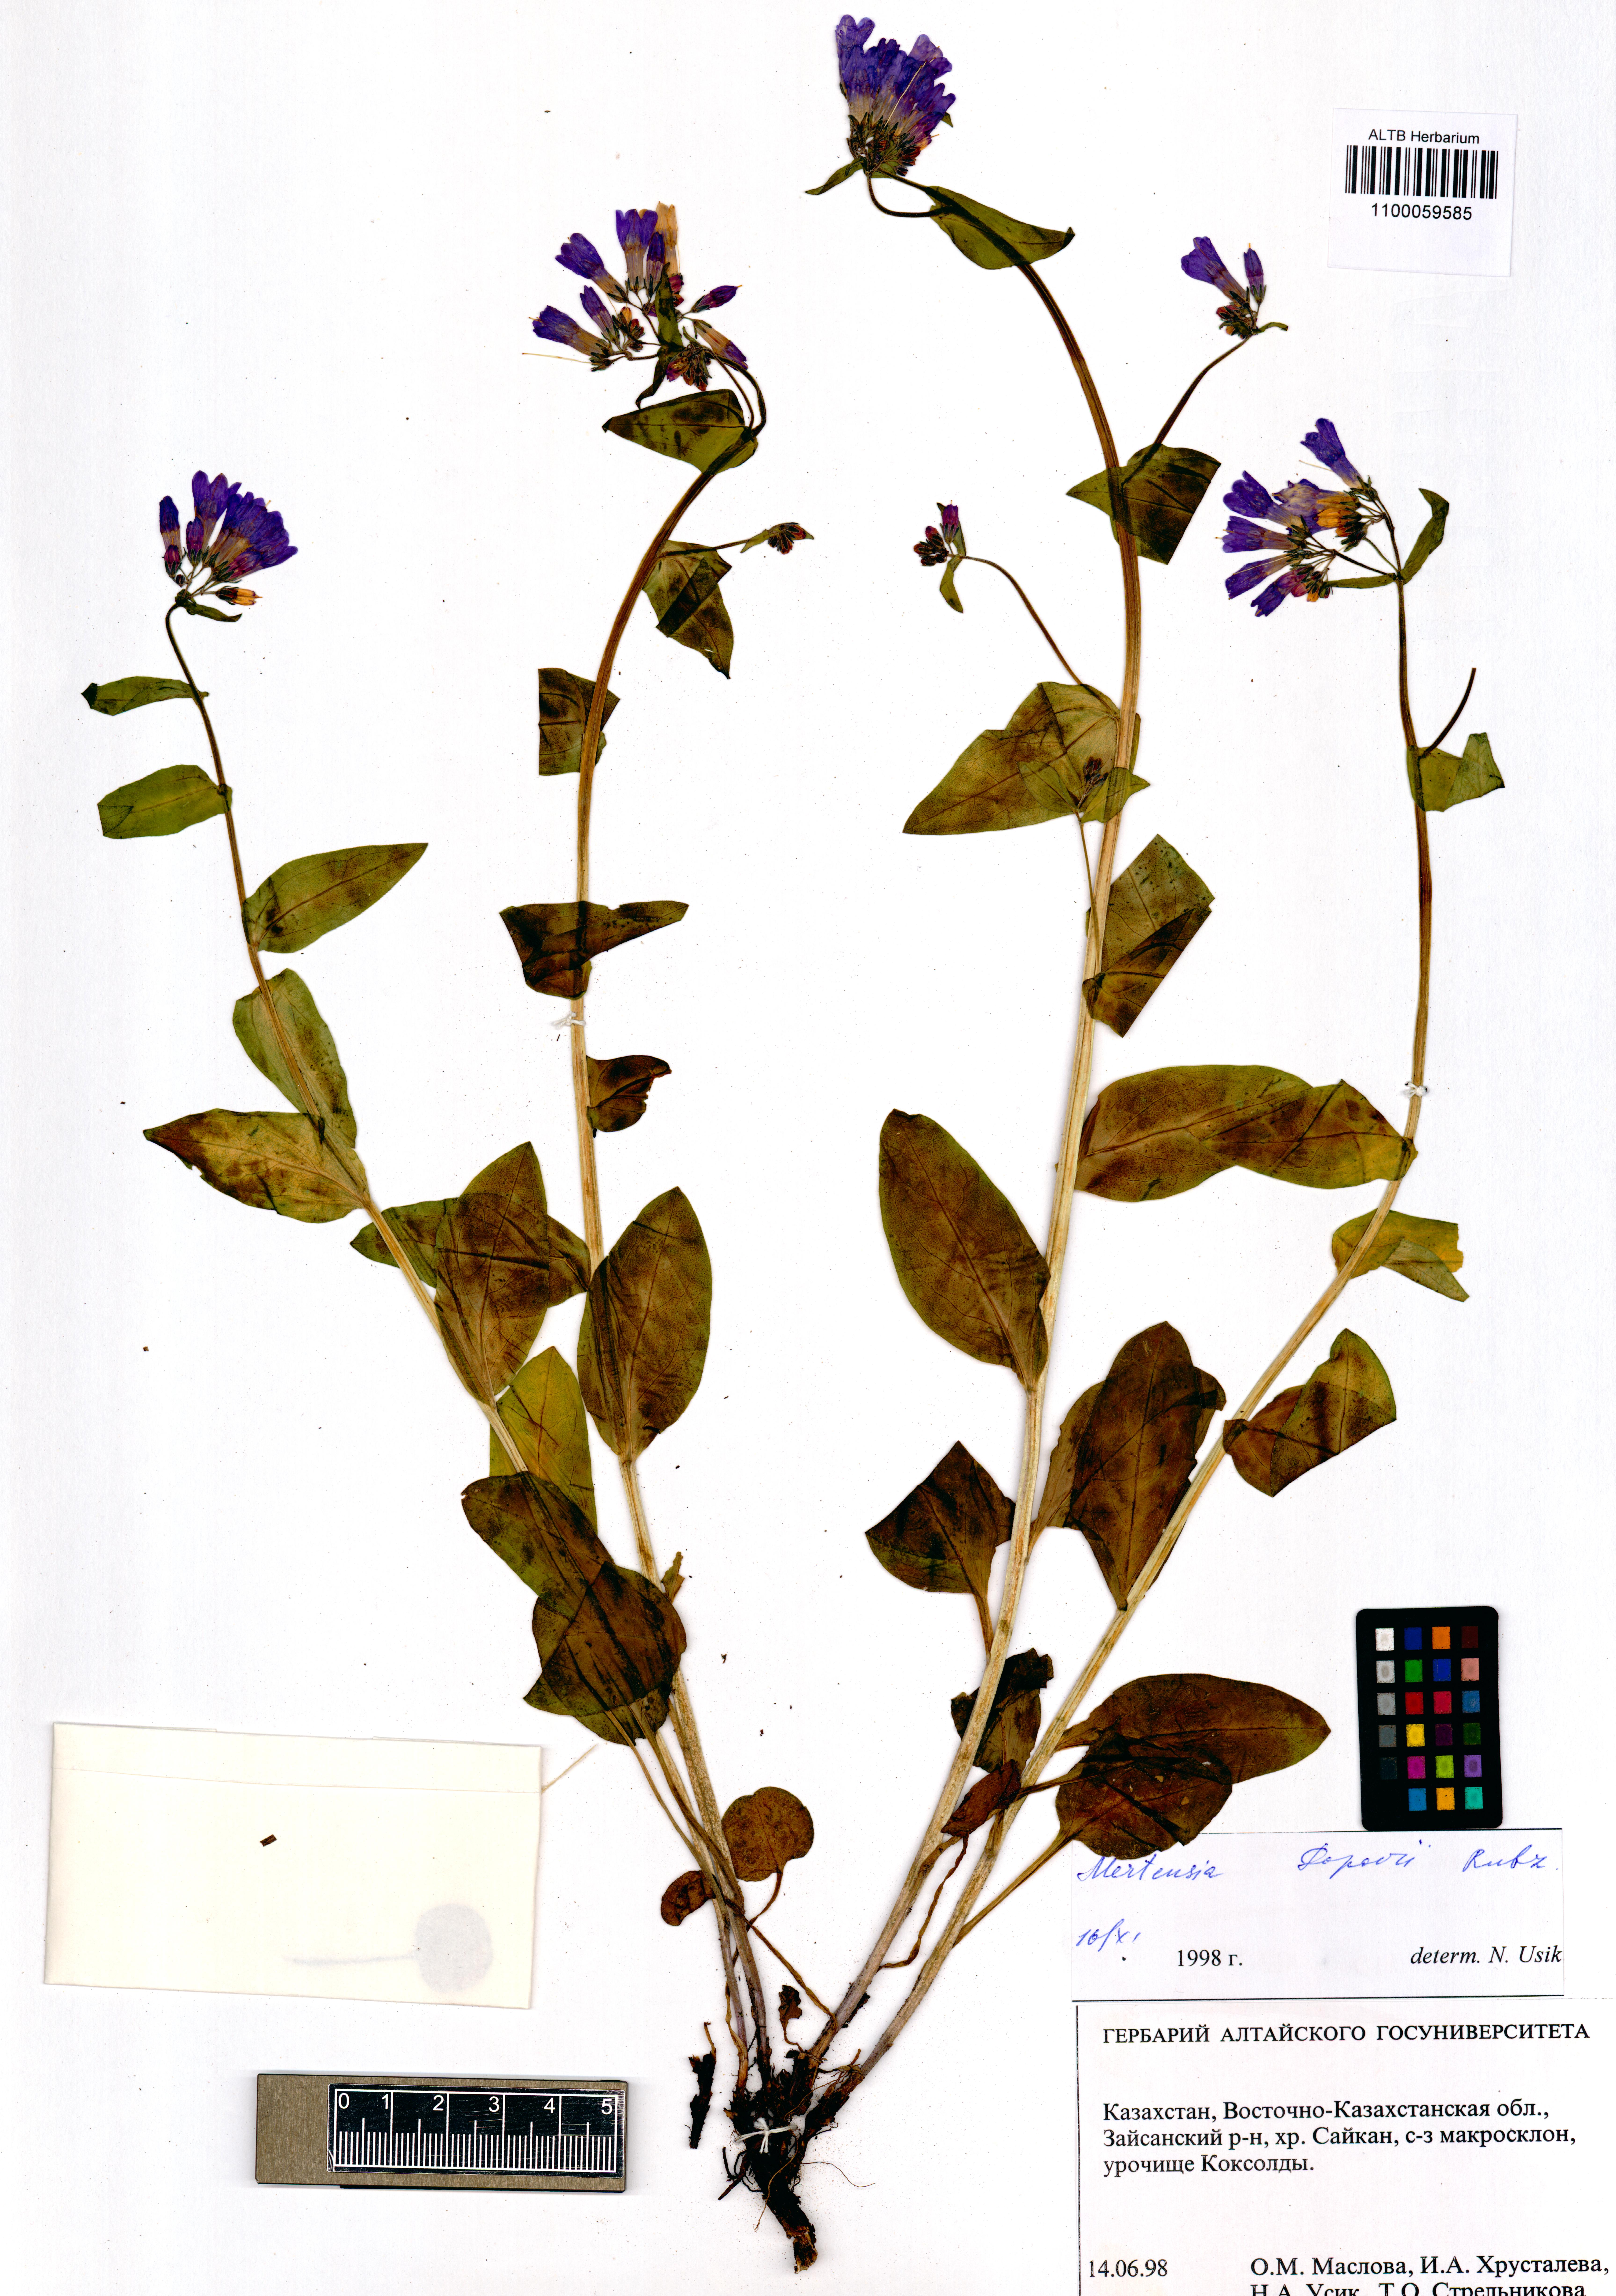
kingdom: Plantae
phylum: Tracheophyta
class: Magnoliopsida
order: Boraginales
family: Boraginaceae
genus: Mertensia
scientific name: Mertensia meyeriana
